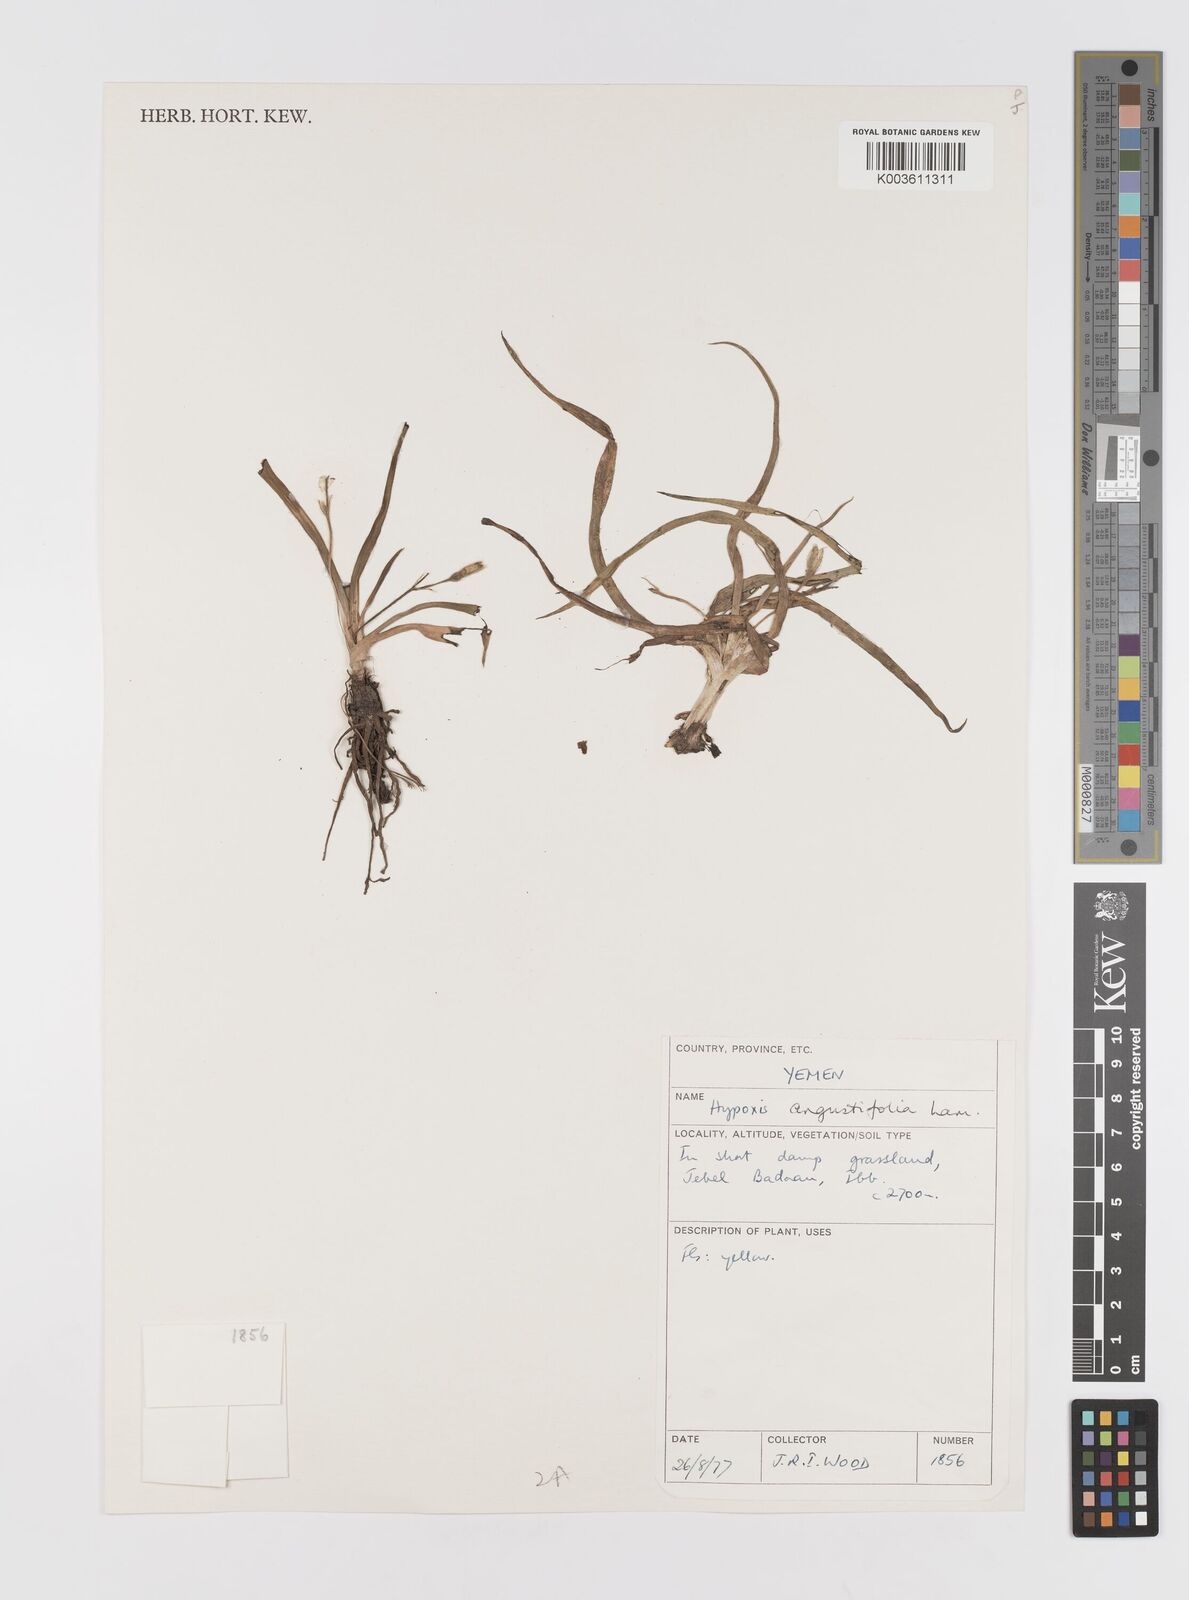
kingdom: Plantae
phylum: Tracheophyta
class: Liliopsida
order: Asparagales
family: Hypoxidaceae
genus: Hypoxis
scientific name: Hypoxis angustifolia
